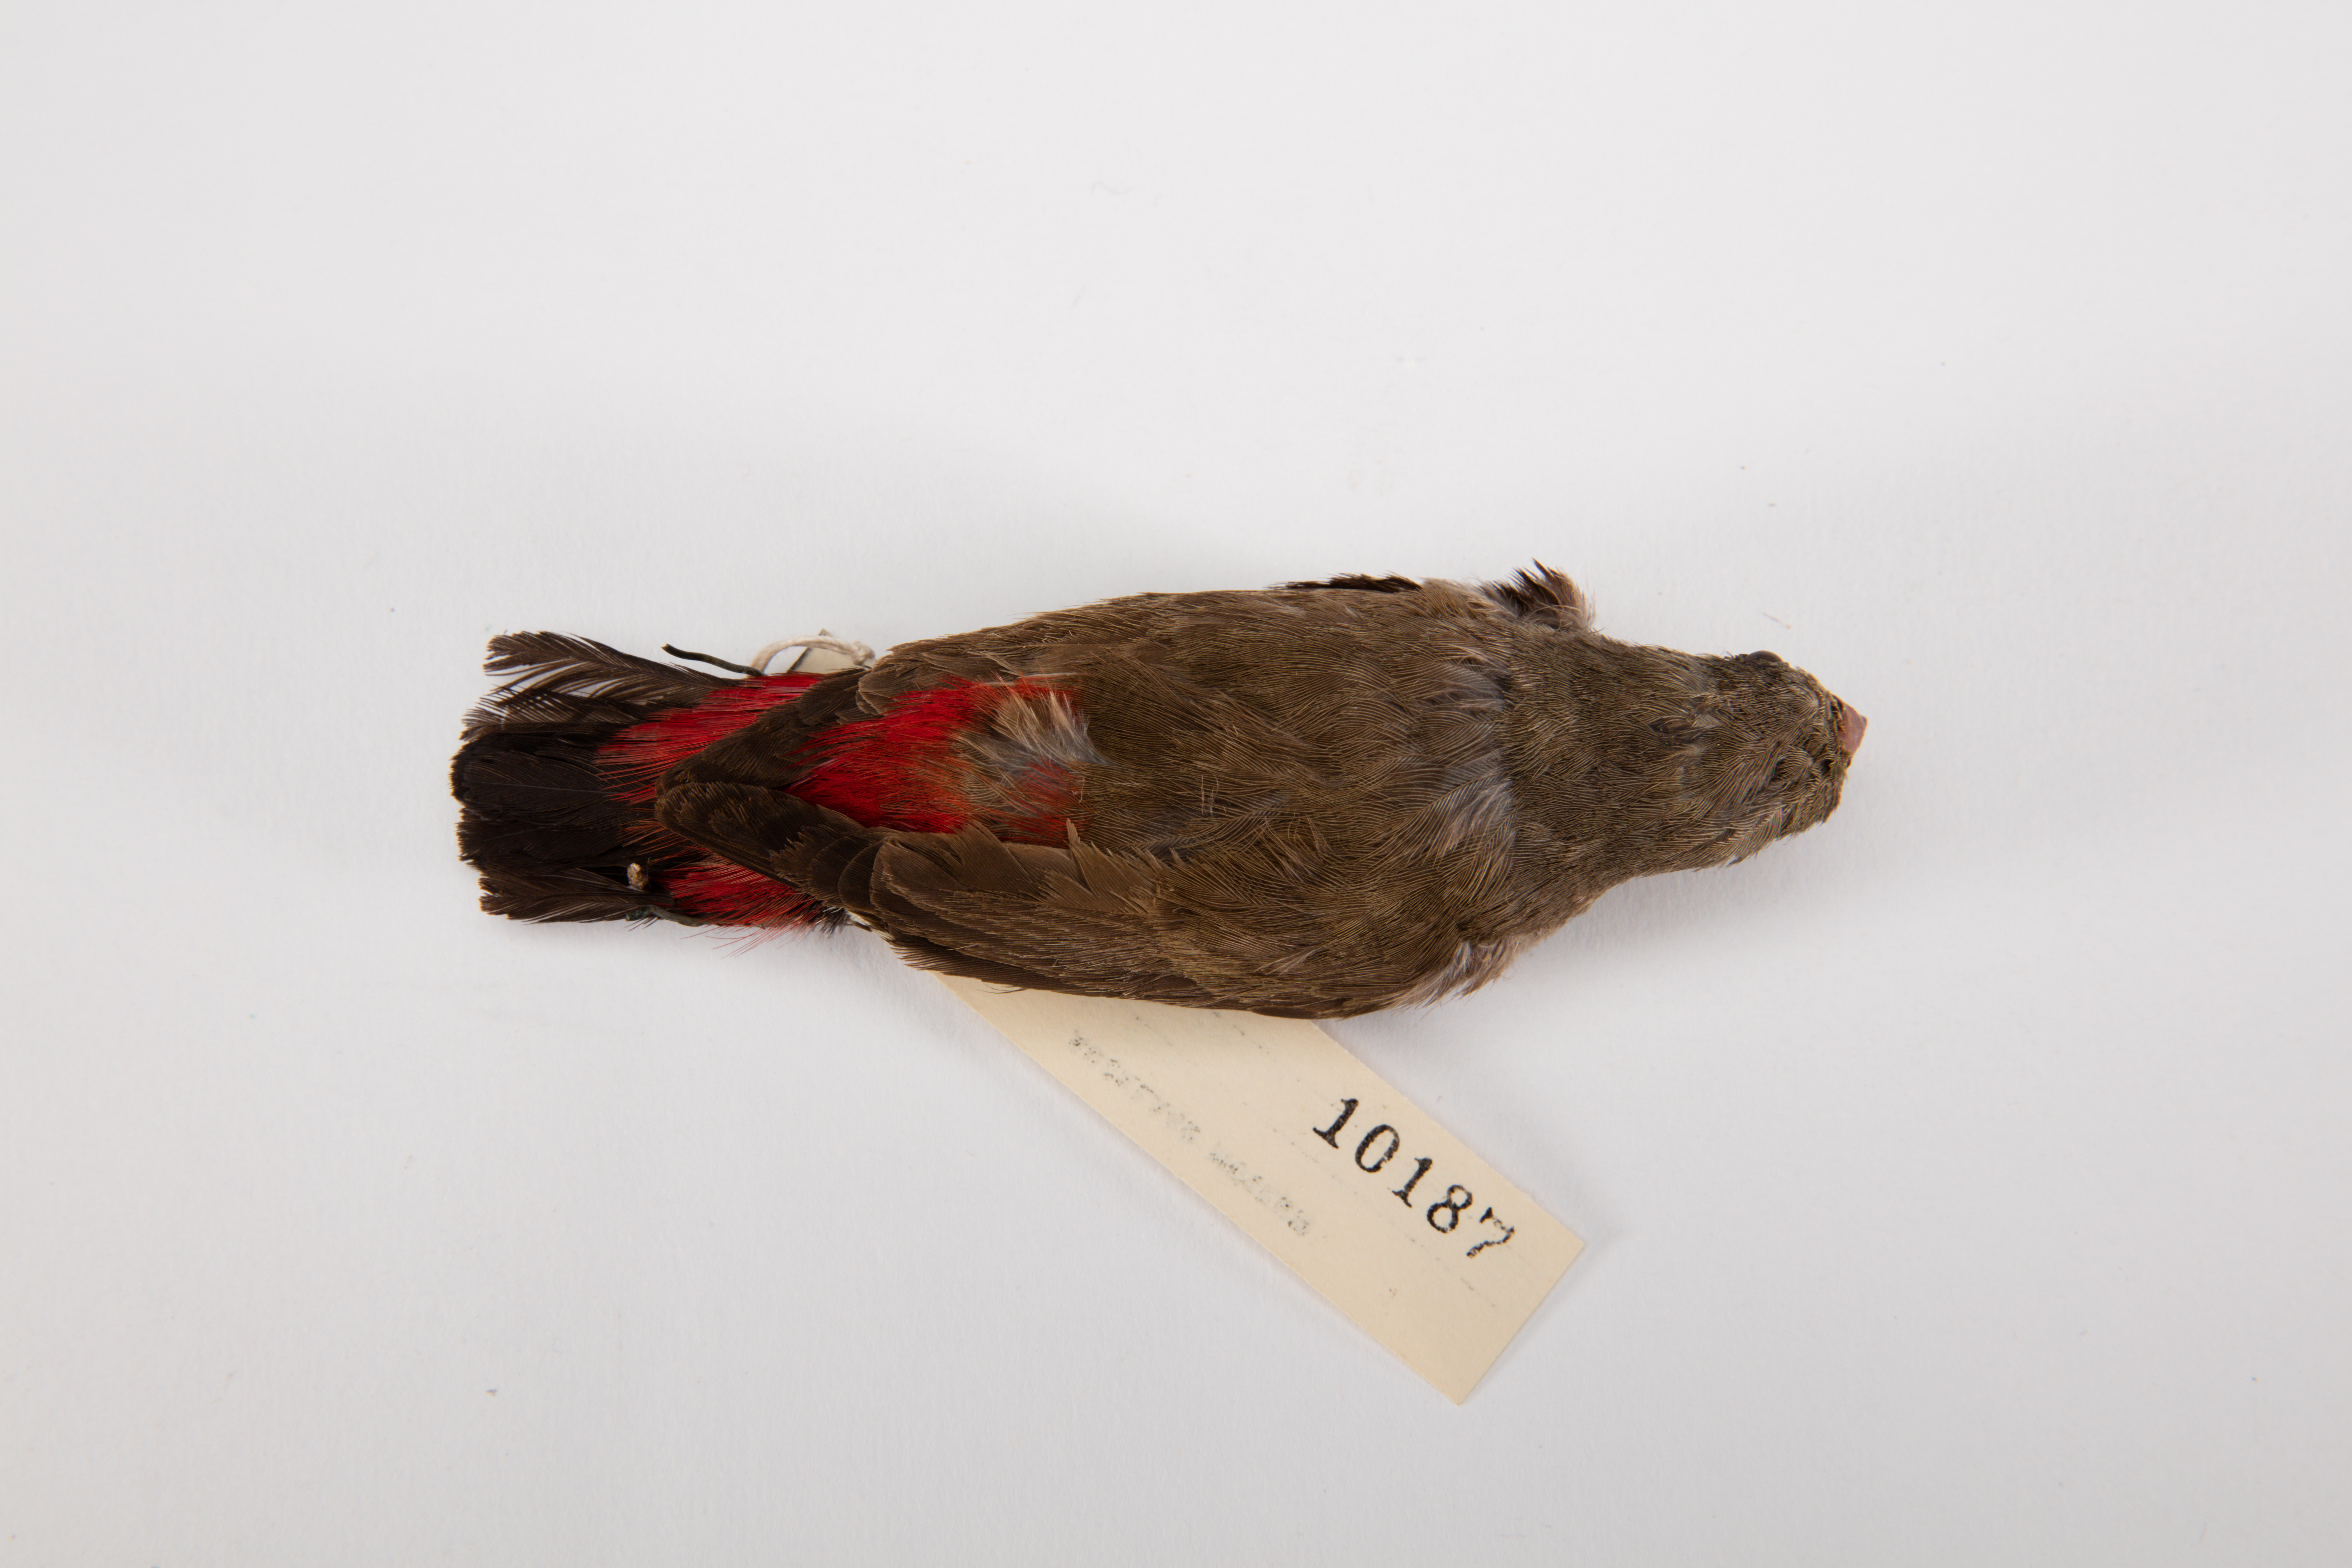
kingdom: Animalia
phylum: Chordata
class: Aves
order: Passeriformes
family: Estrildidae
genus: Stagonopleura
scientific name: Stagonopleura guttata
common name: Diamond firetail
